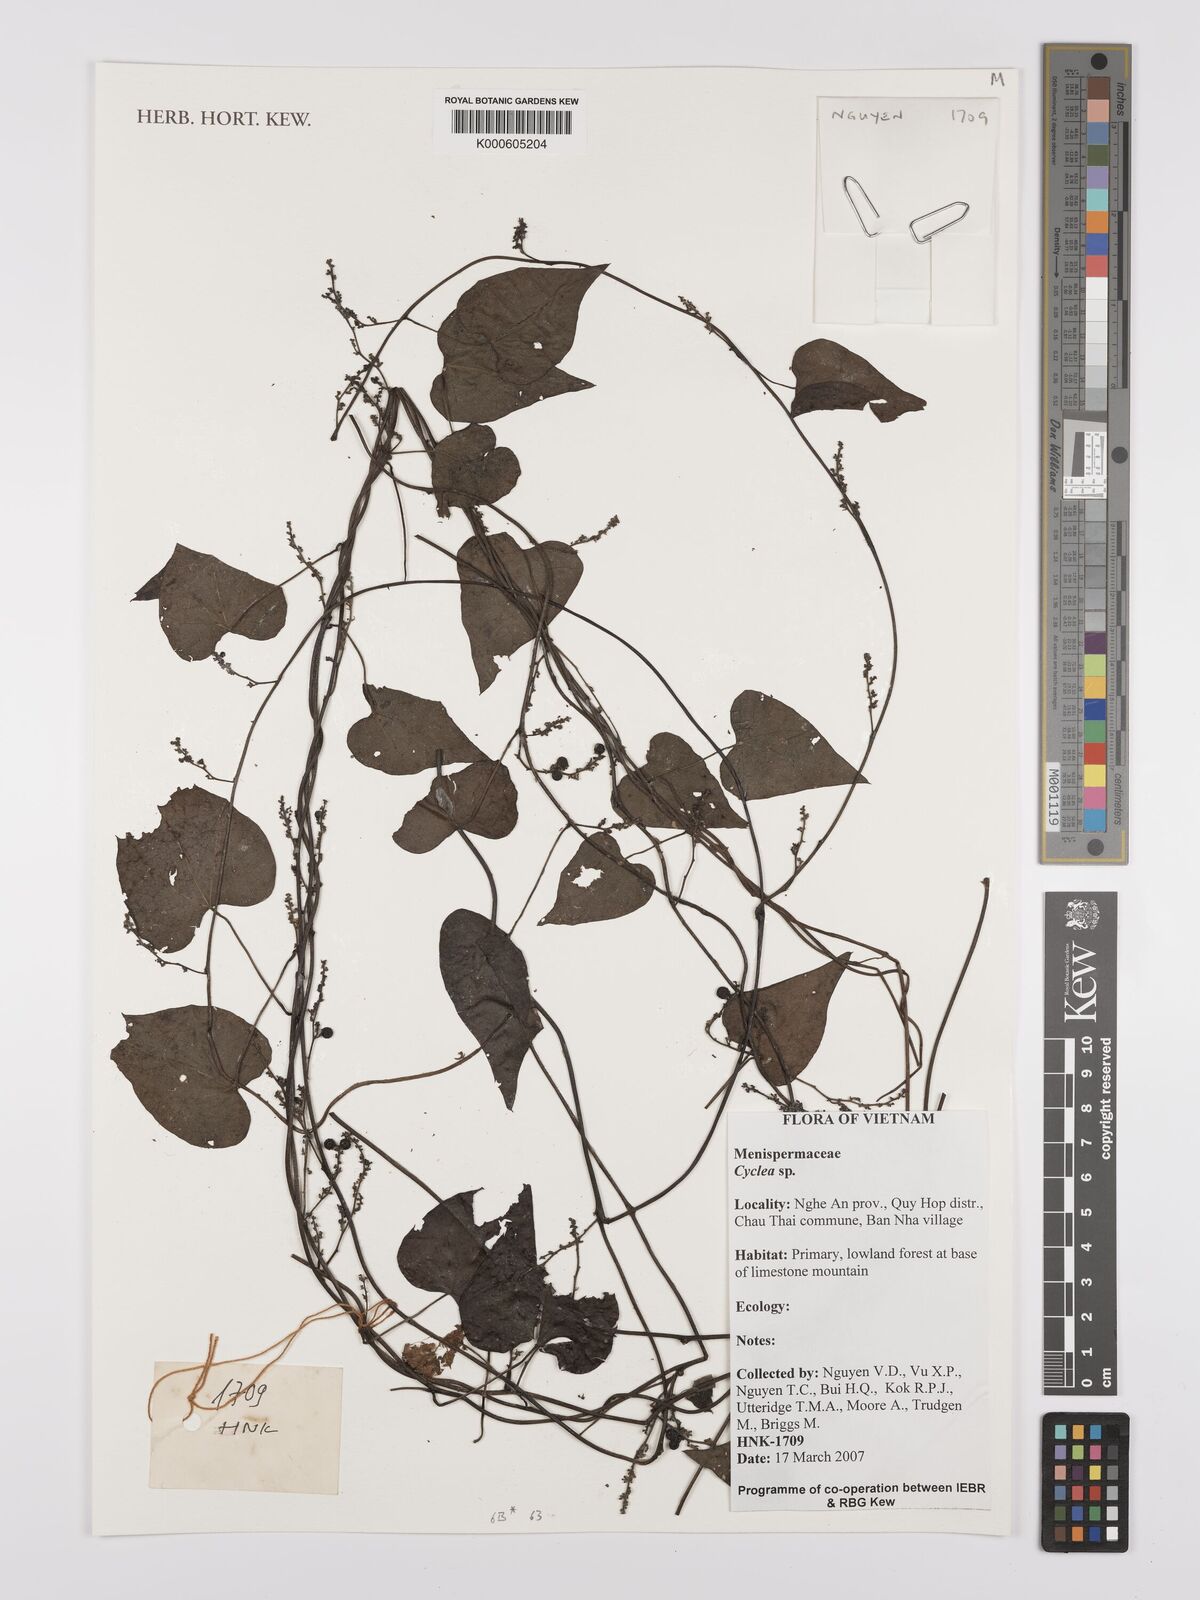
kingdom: Plantae
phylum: Tracheophyta
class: Magnoliopsida
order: Ranunculales
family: Menispermaceae
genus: Cyclea
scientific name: Cyclea tonkinensis
